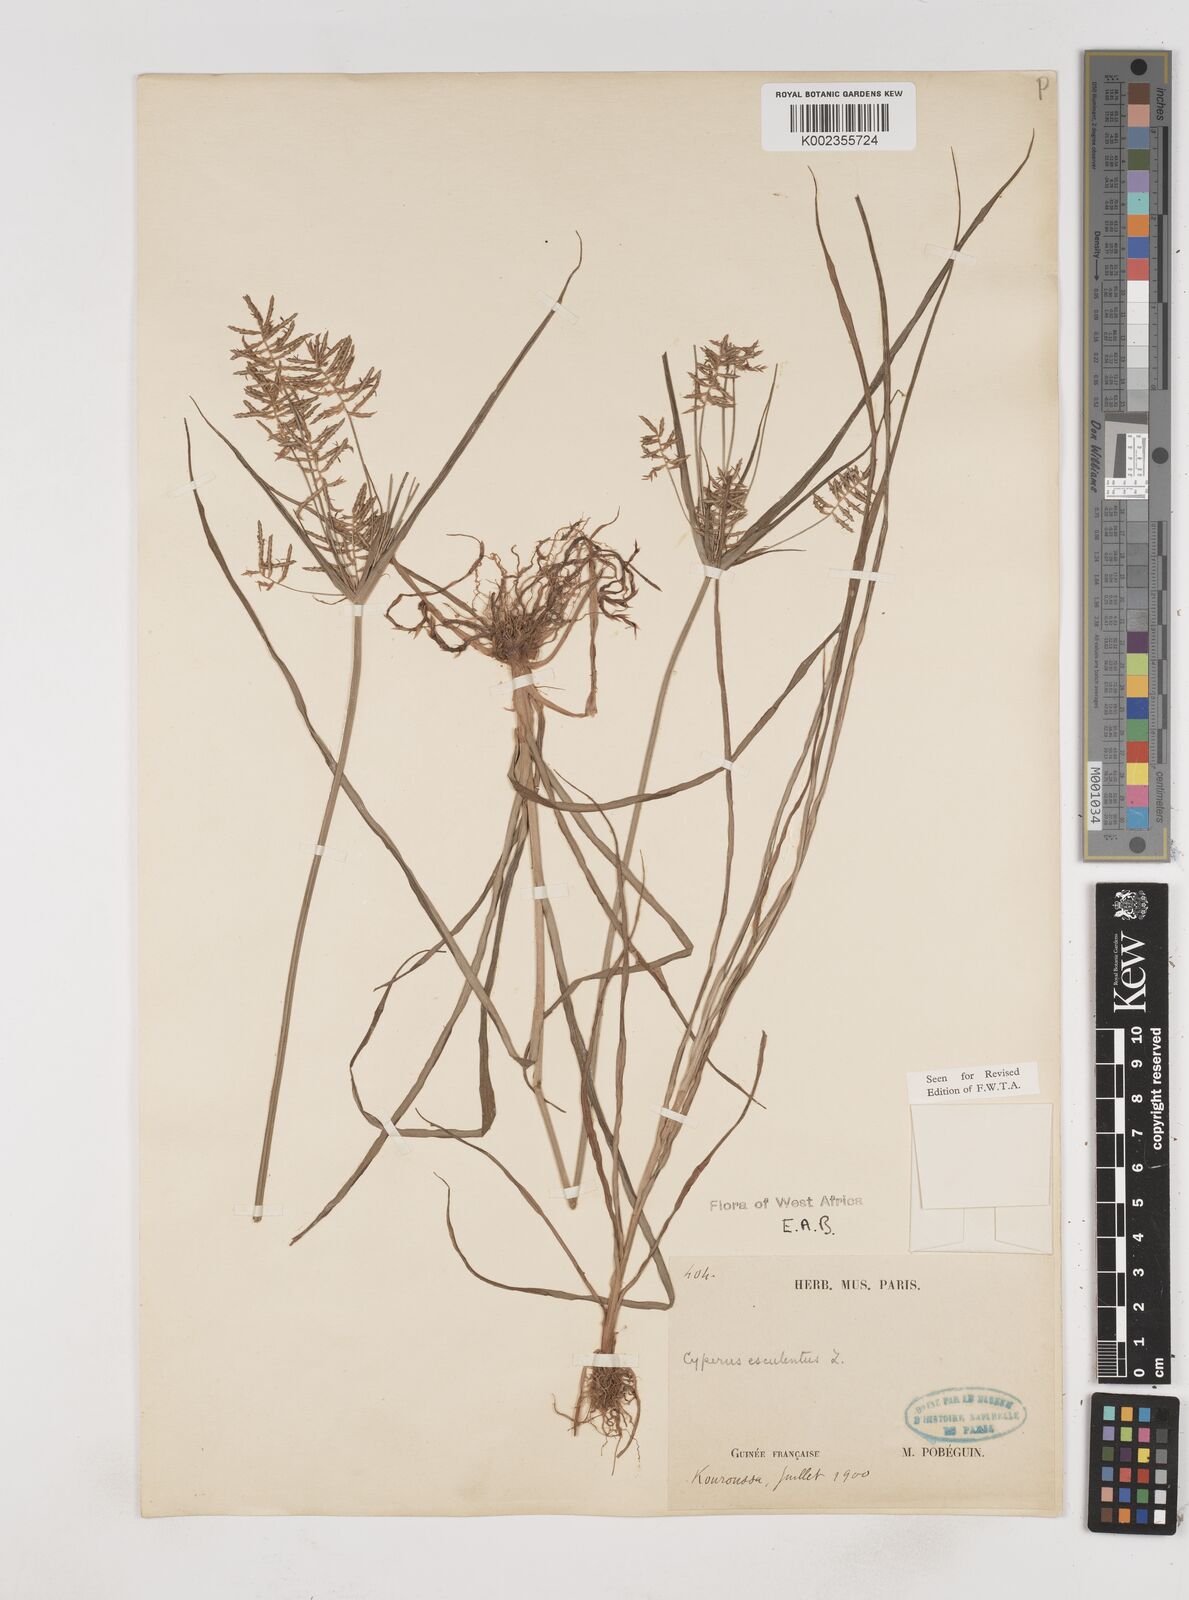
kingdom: Plantae
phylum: Tracheophyta
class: Liliopsida
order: Poales
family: Cyperaceae
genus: Cyperus
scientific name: Cyperus esculentus
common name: Yellow nutsedge
